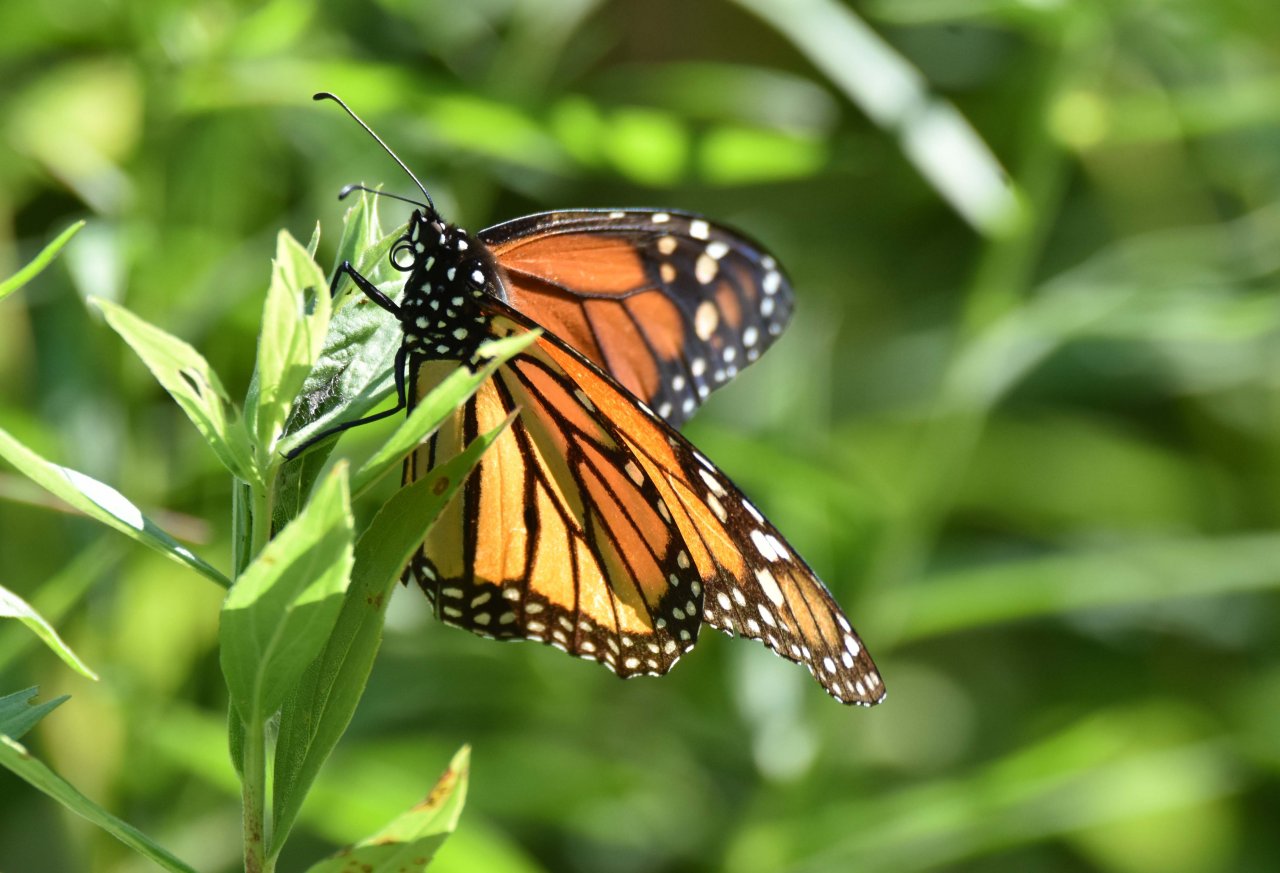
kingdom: Animalia
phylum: Arthropoda
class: Insecta
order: Lepidoptera
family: Nymphalidae
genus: Danaus
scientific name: Danaus plexippus
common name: Monarch
